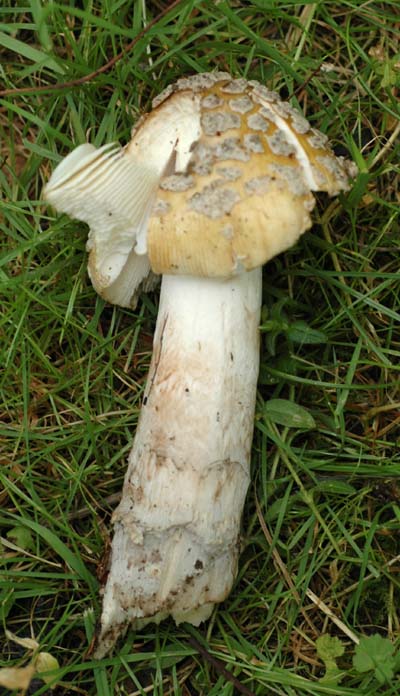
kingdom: Fungi
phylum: Basidiomycota
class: Agaricomycetes
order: Agaricales
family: Amanitaceae
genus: Amanita
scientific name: Amanita ceciliae
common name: stor kam-fluesvamp
